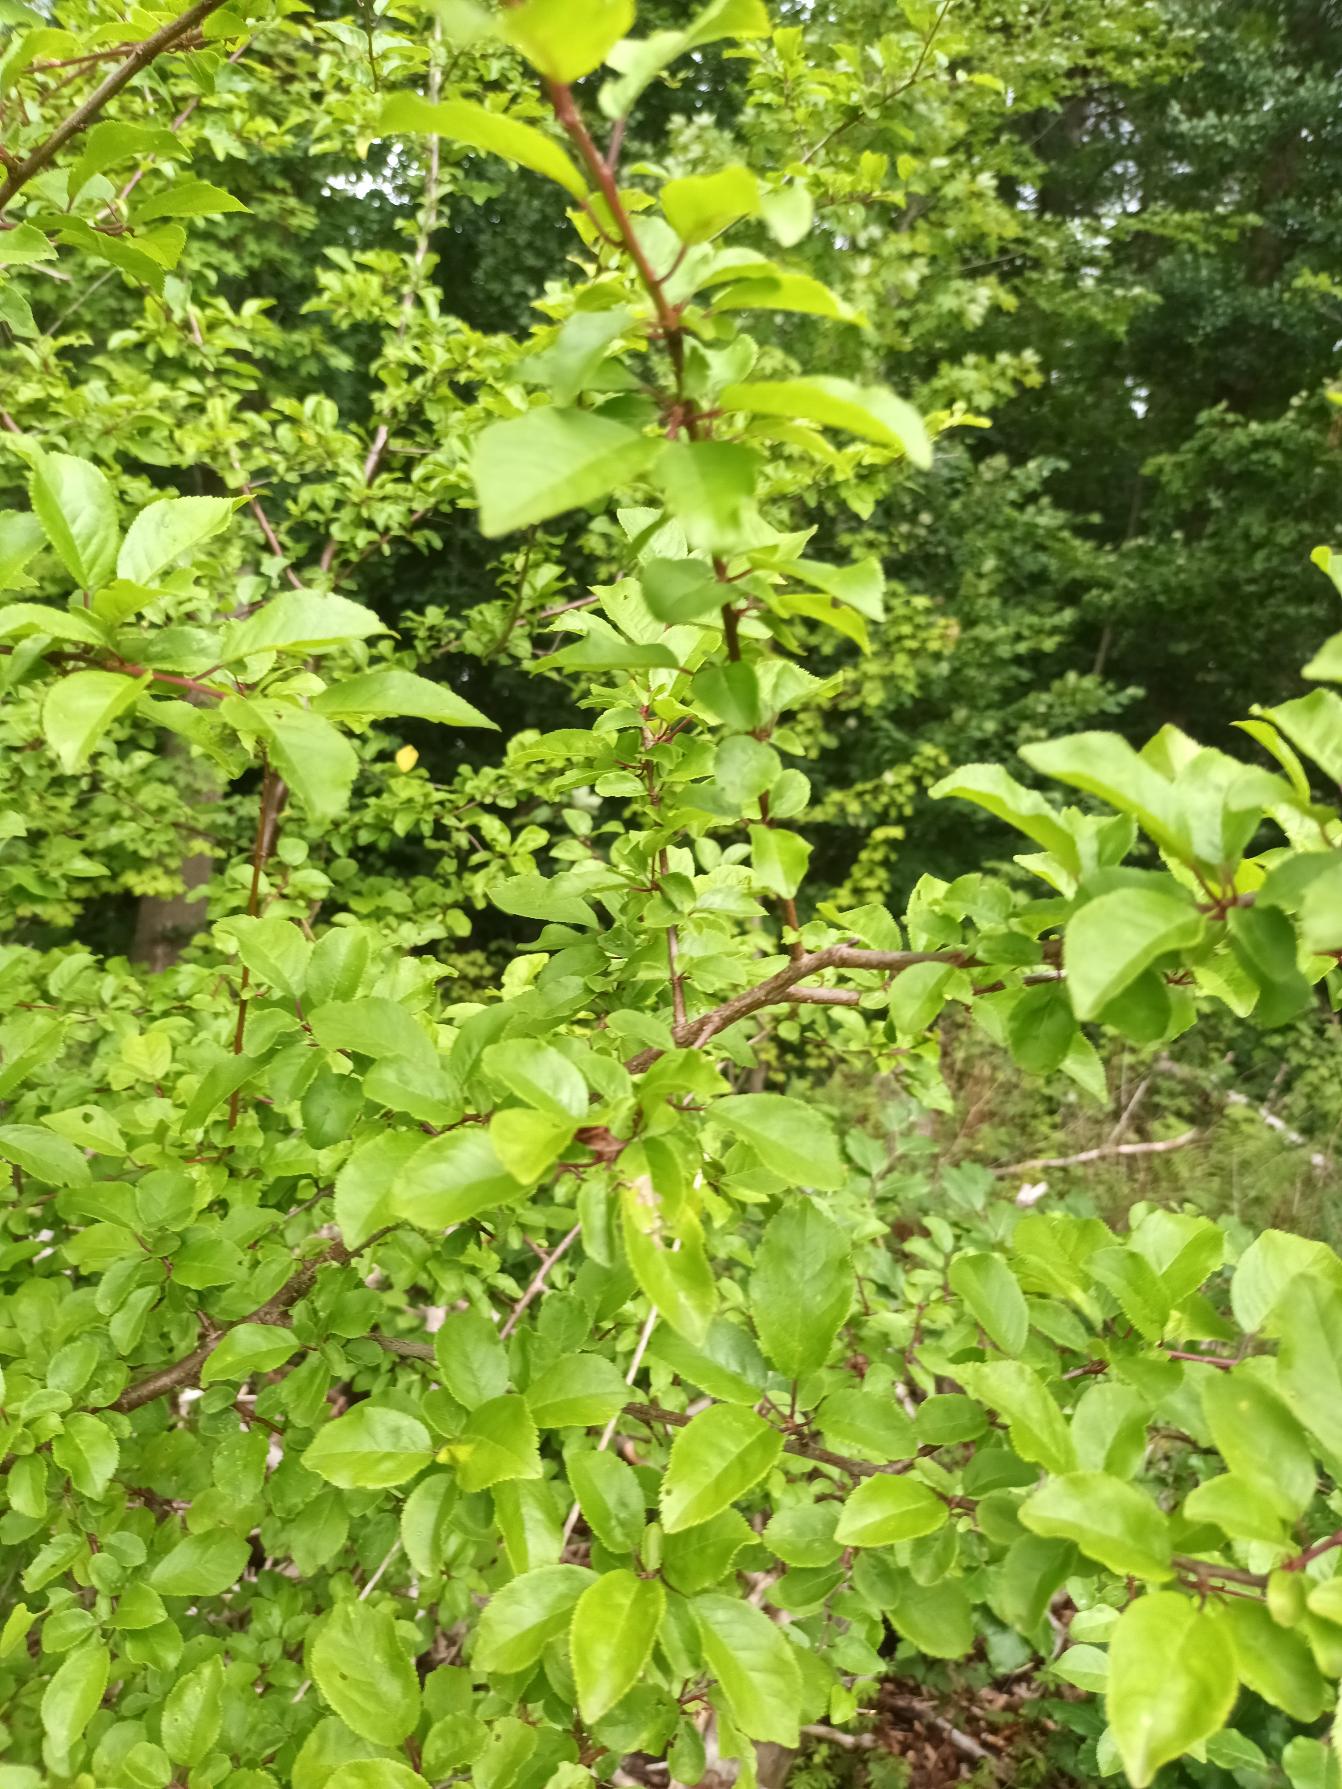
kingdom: Plantae
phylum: Tracheophyta
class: Magnoliopsida
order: Rosales
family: Rosaceae
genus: Prunus
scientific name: Prunus cerasifera
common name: Mirabel
